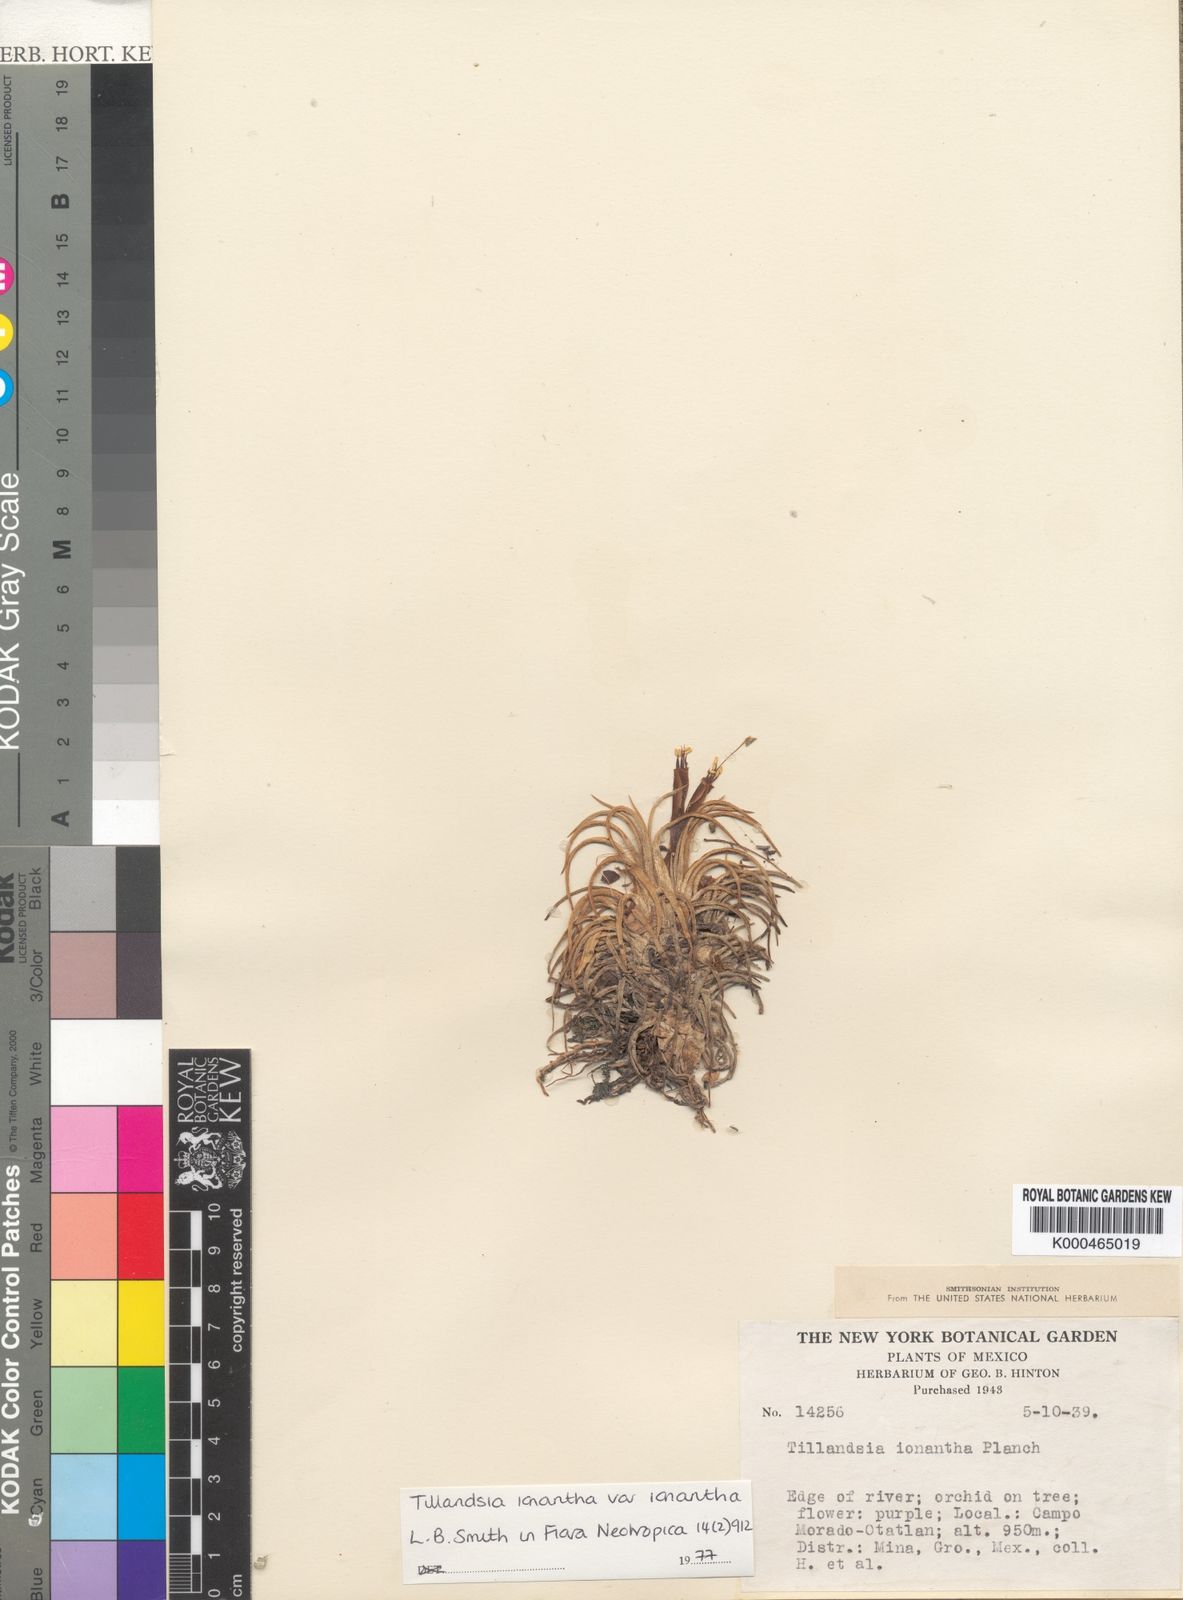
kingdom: Plantae
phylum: Tracheophyta
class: Liliopsida
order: Poales
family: Bromeliaceae
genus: Tillandsia
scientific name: Tillandsia ionantha
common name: Sky plant
